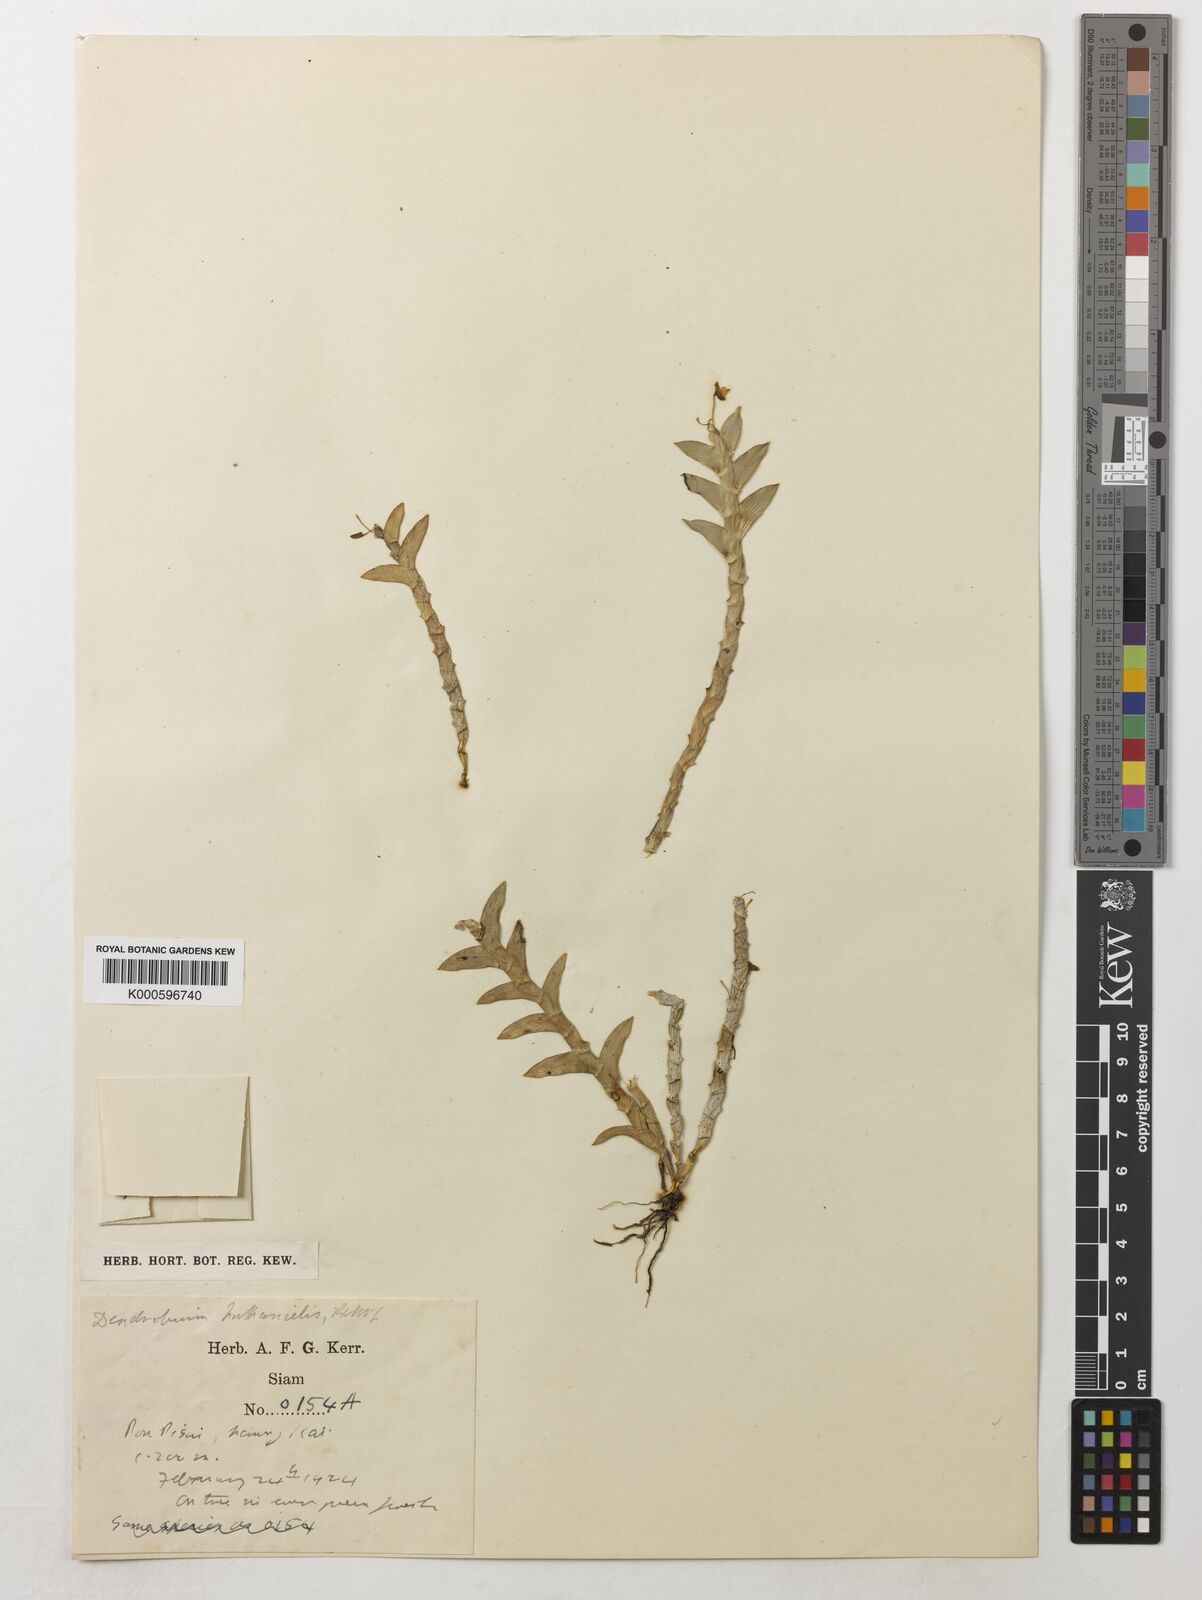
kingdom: Plantae
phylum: Tracheophyta
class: Liliopsida
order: Asparagales
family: Orchidaceae
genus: Dendrobium
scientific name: Dendrobium nathanielis
